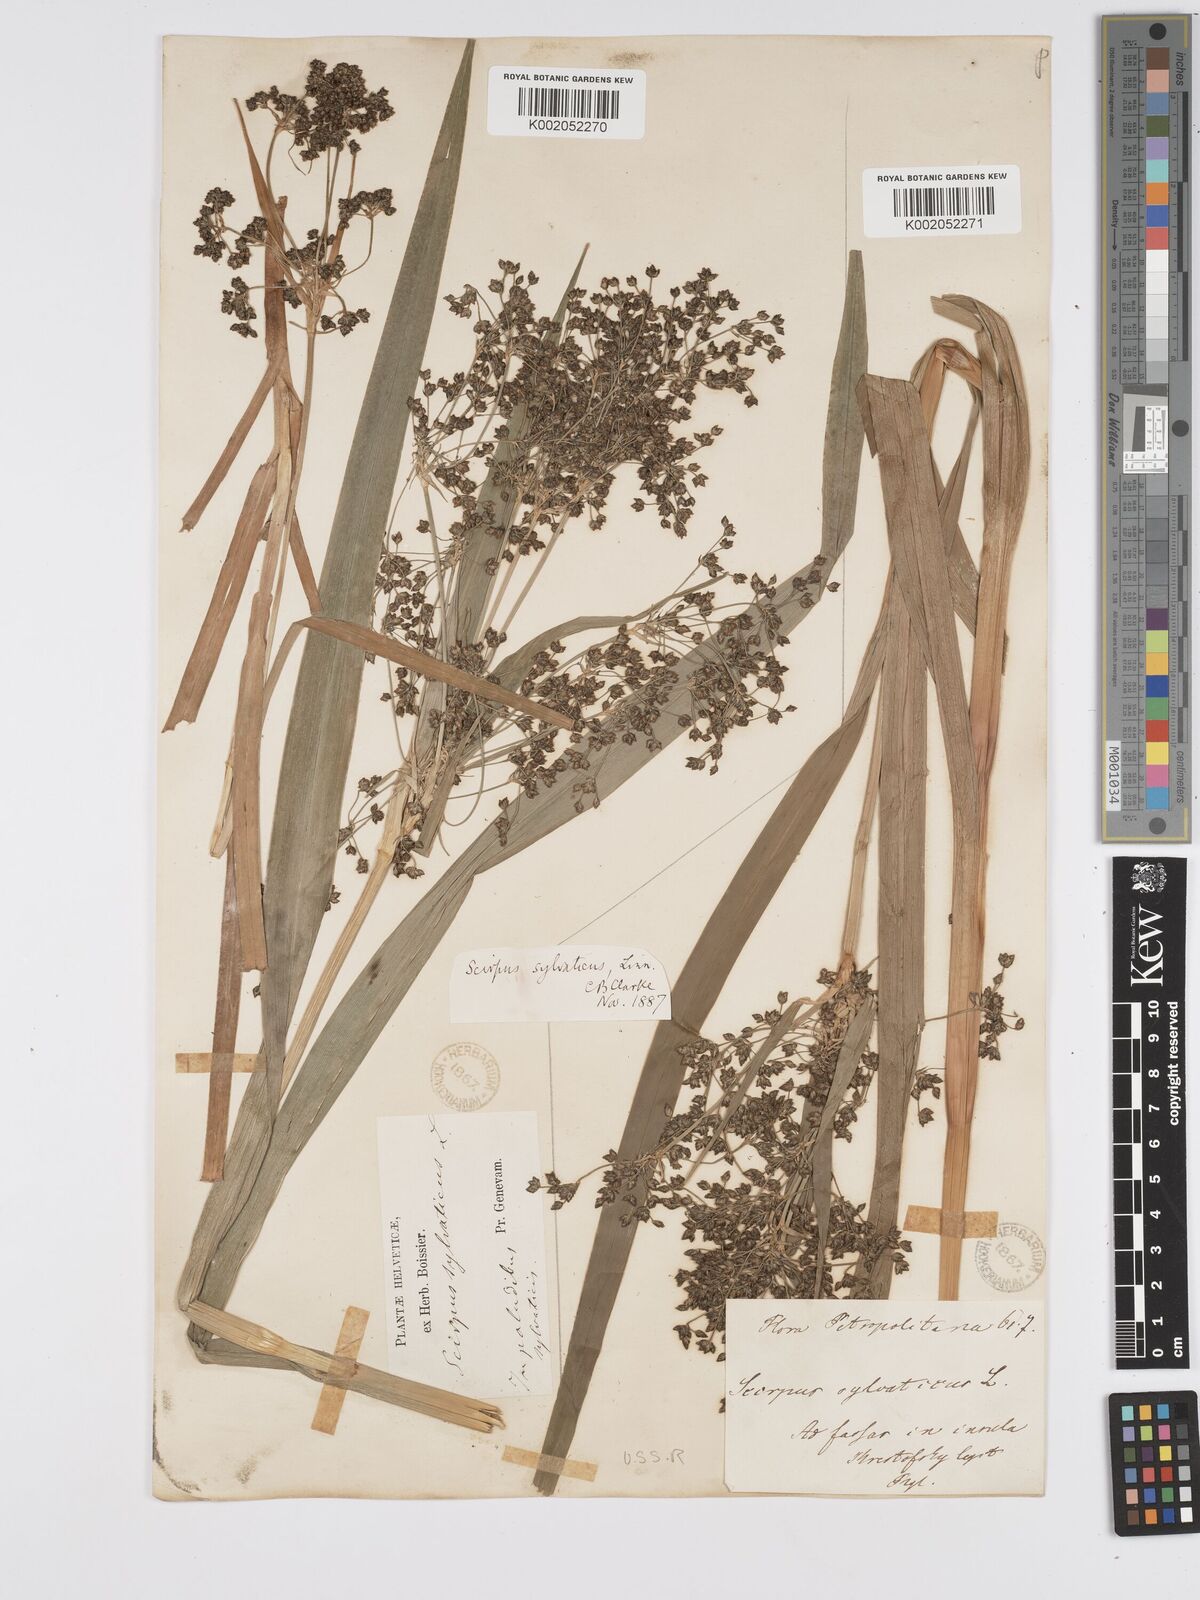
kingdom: Plantae
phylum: Tracheophyta
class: Liliopsida
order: Poales
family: Cyperaceae
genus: Scirpus
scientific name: Scirpus sylvaticus
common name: Wood club-rush
